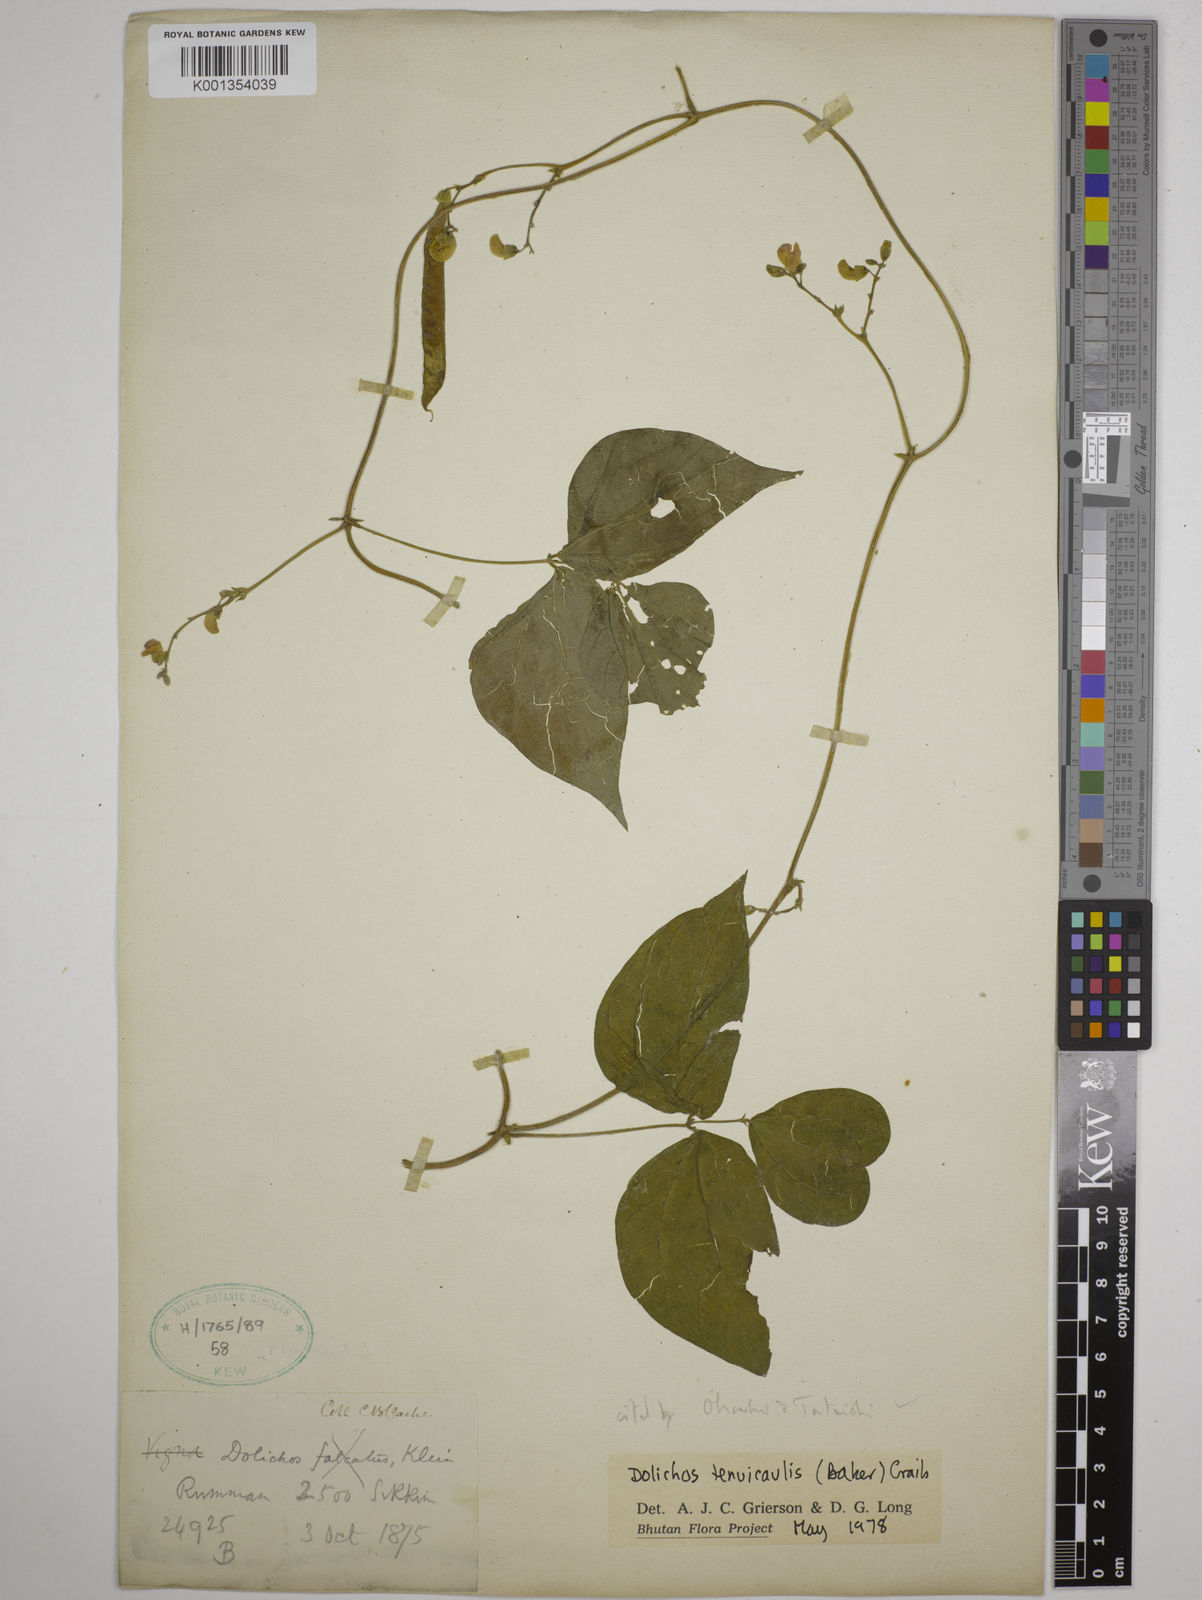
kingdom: Plantae
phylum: Tracheophyta
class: Magnoliopsida
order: Fabales
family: Fabaceae
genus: Dolichos
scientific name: Dolichos tenuicaulis
